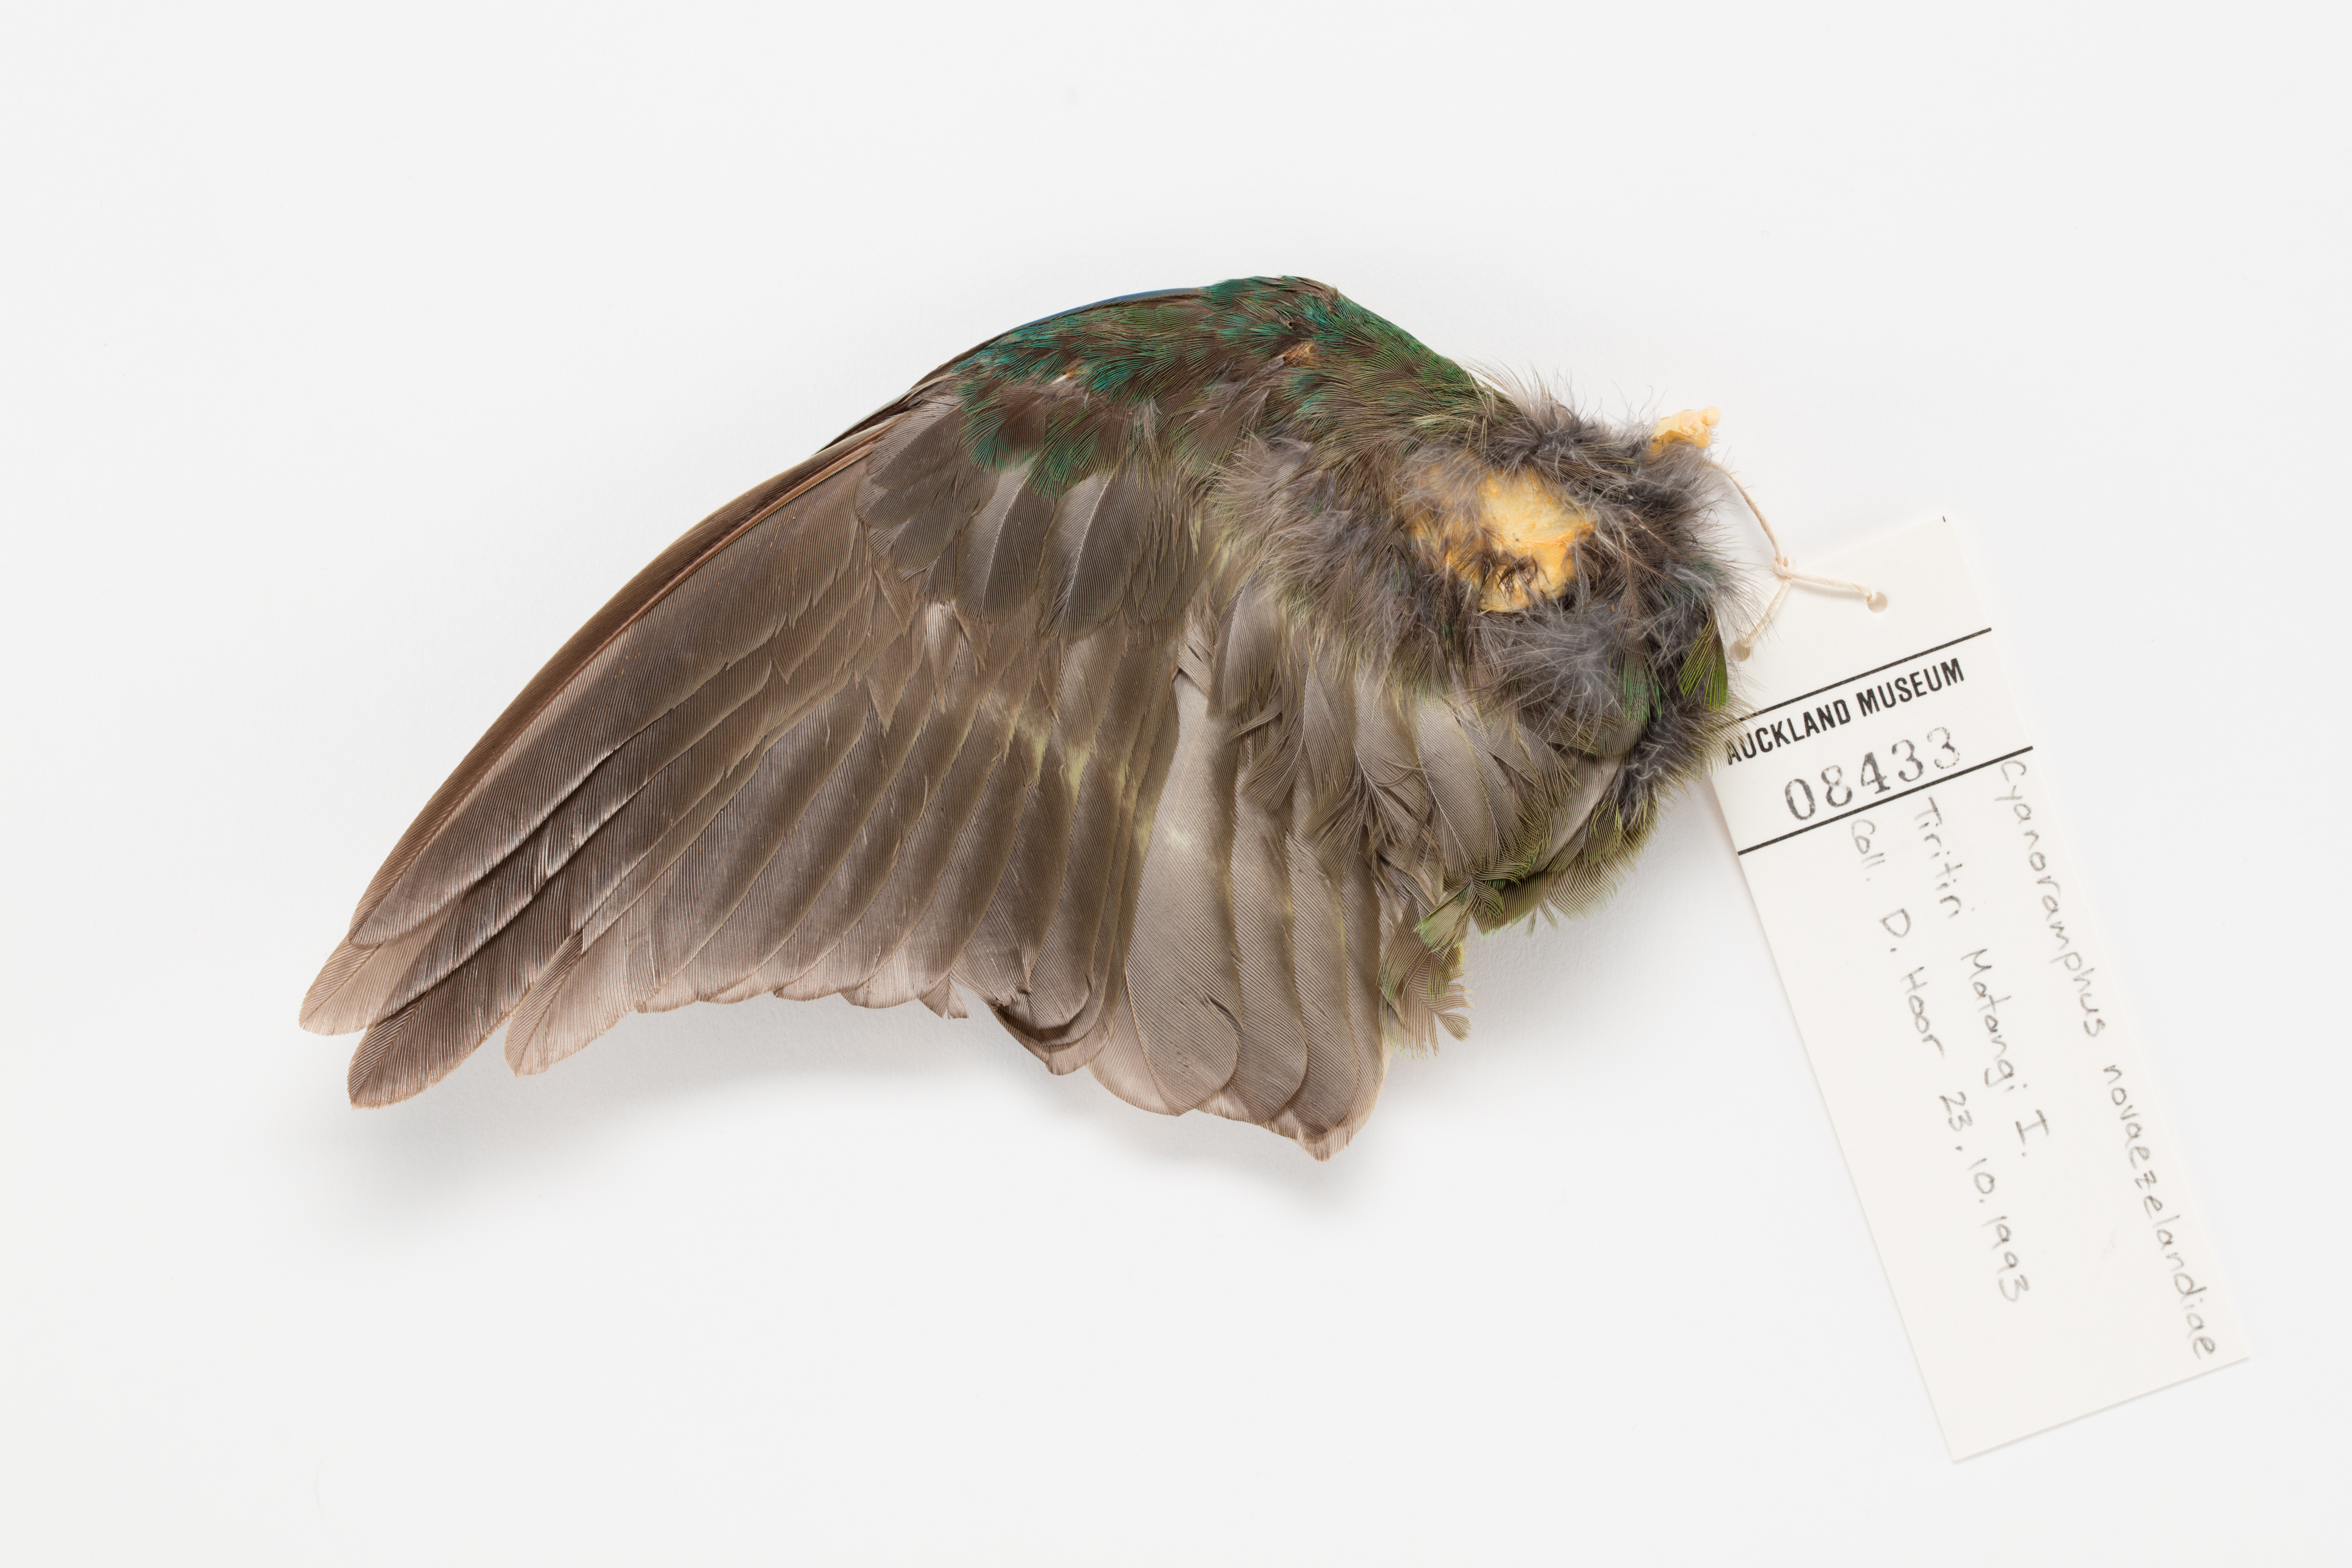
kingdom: Animalia
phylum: Chordata
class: Aves
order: Psittaciformes
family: Psittacidae
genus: Cyanoramphus
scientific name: Cyanoramphus novaezelandiae
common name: Red-fronted parakeet
